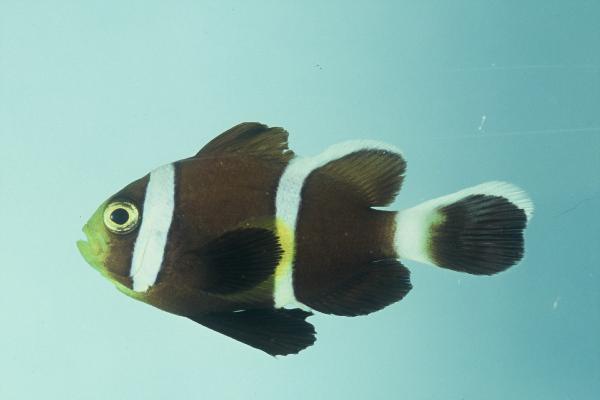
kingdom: Animalia
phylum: Chordata
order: Perciformes
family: Pomacentridae
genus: Amphiprion
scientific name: Amphiprion akindynos
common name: Barrier reef anemonefish
